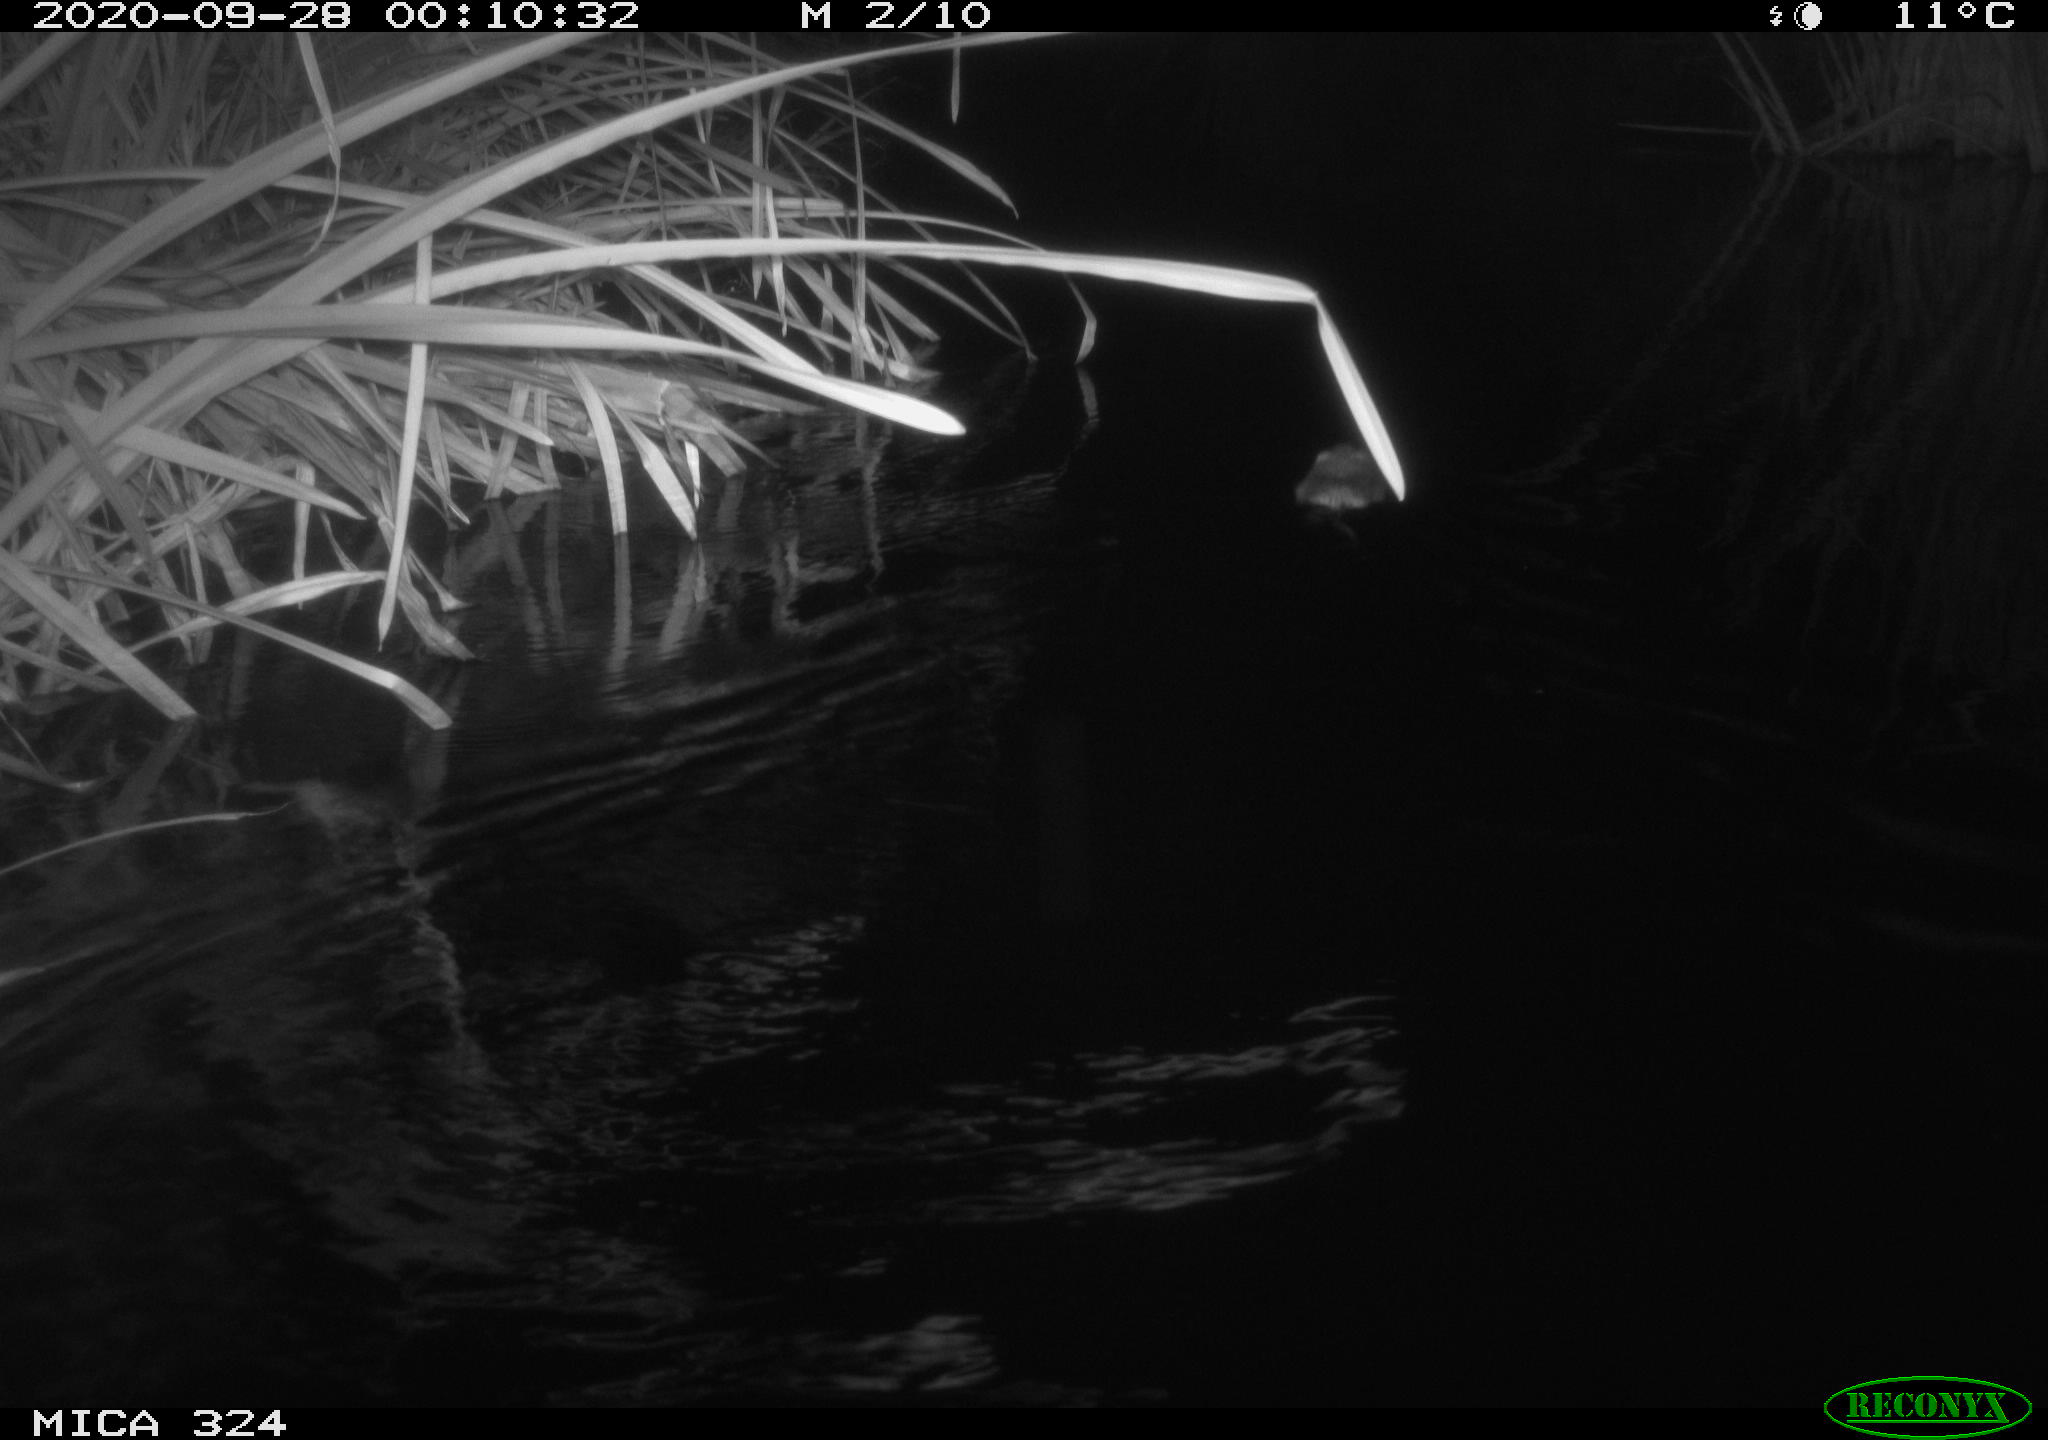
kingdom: Animalia
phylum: Chordata
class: Mammalia
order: Rodentia
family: Cricetidae
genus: Ondatra
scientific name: Ondatra zibethicus
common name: Muskrat
